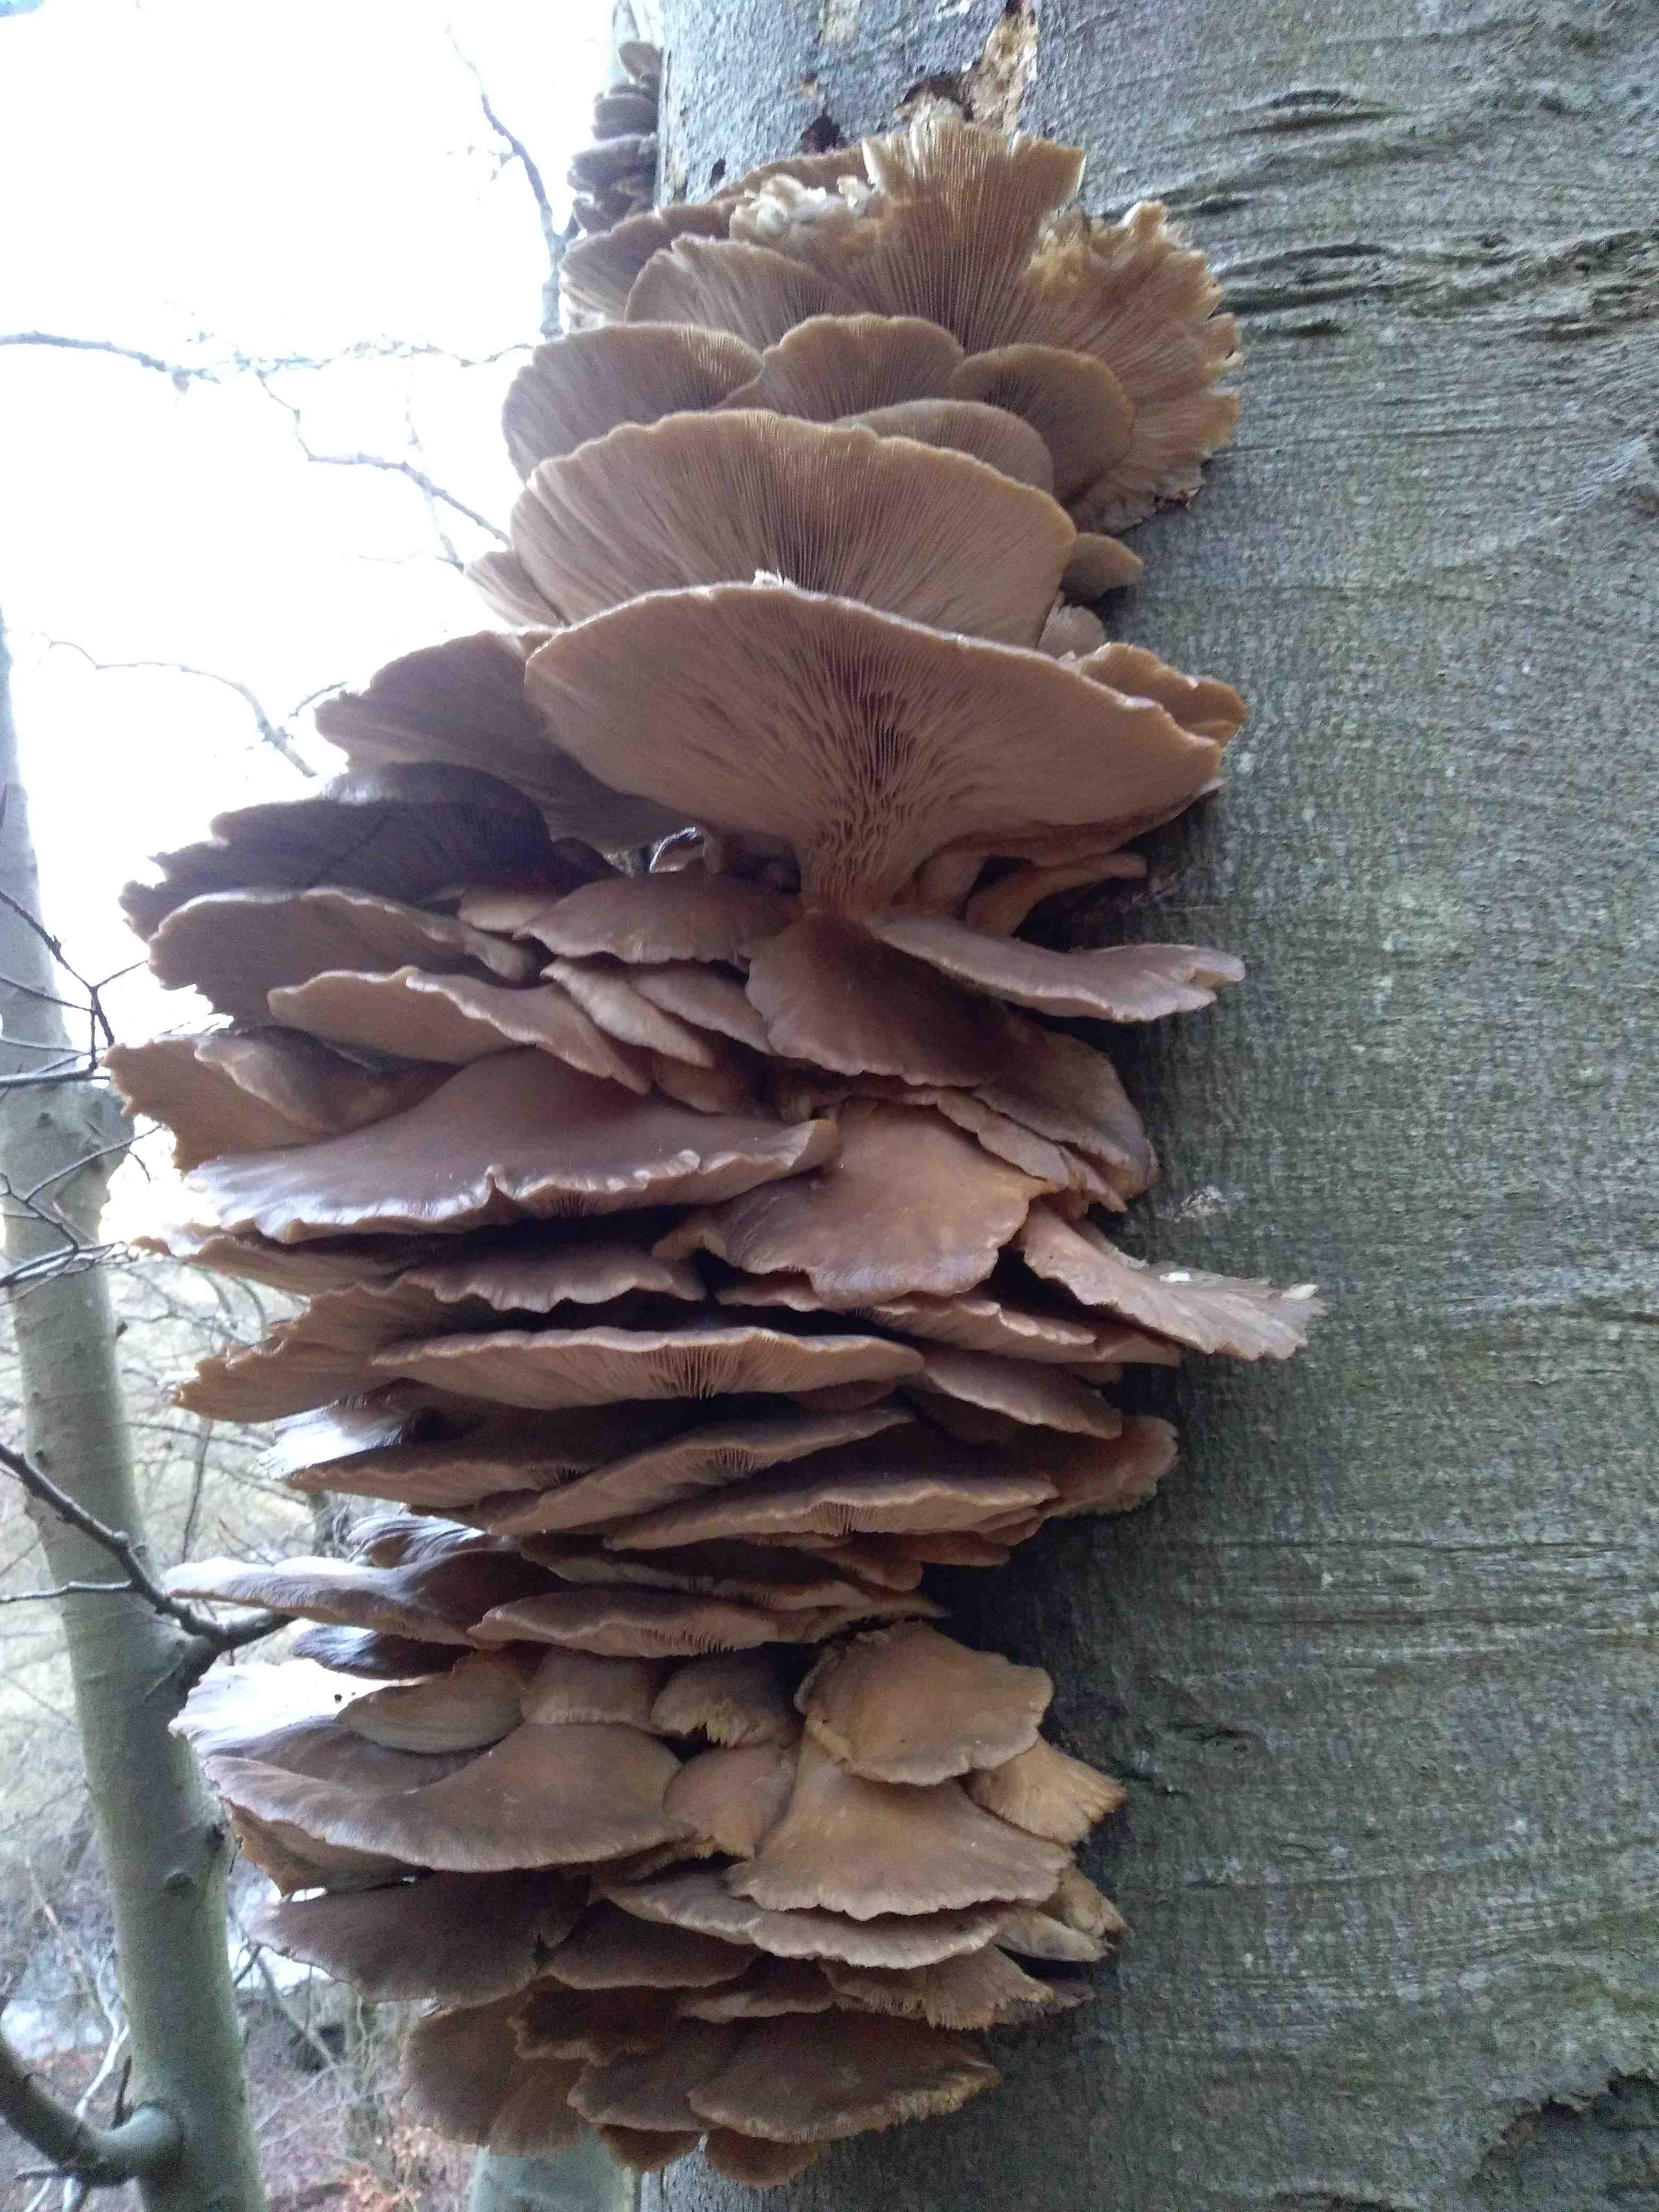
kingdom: Fungi
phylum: Basidiomycota
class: Agaricomycetes
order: Agaricales
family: Pleurotaceae
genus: Pleurotus
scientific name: Pleurotus ostreatus
